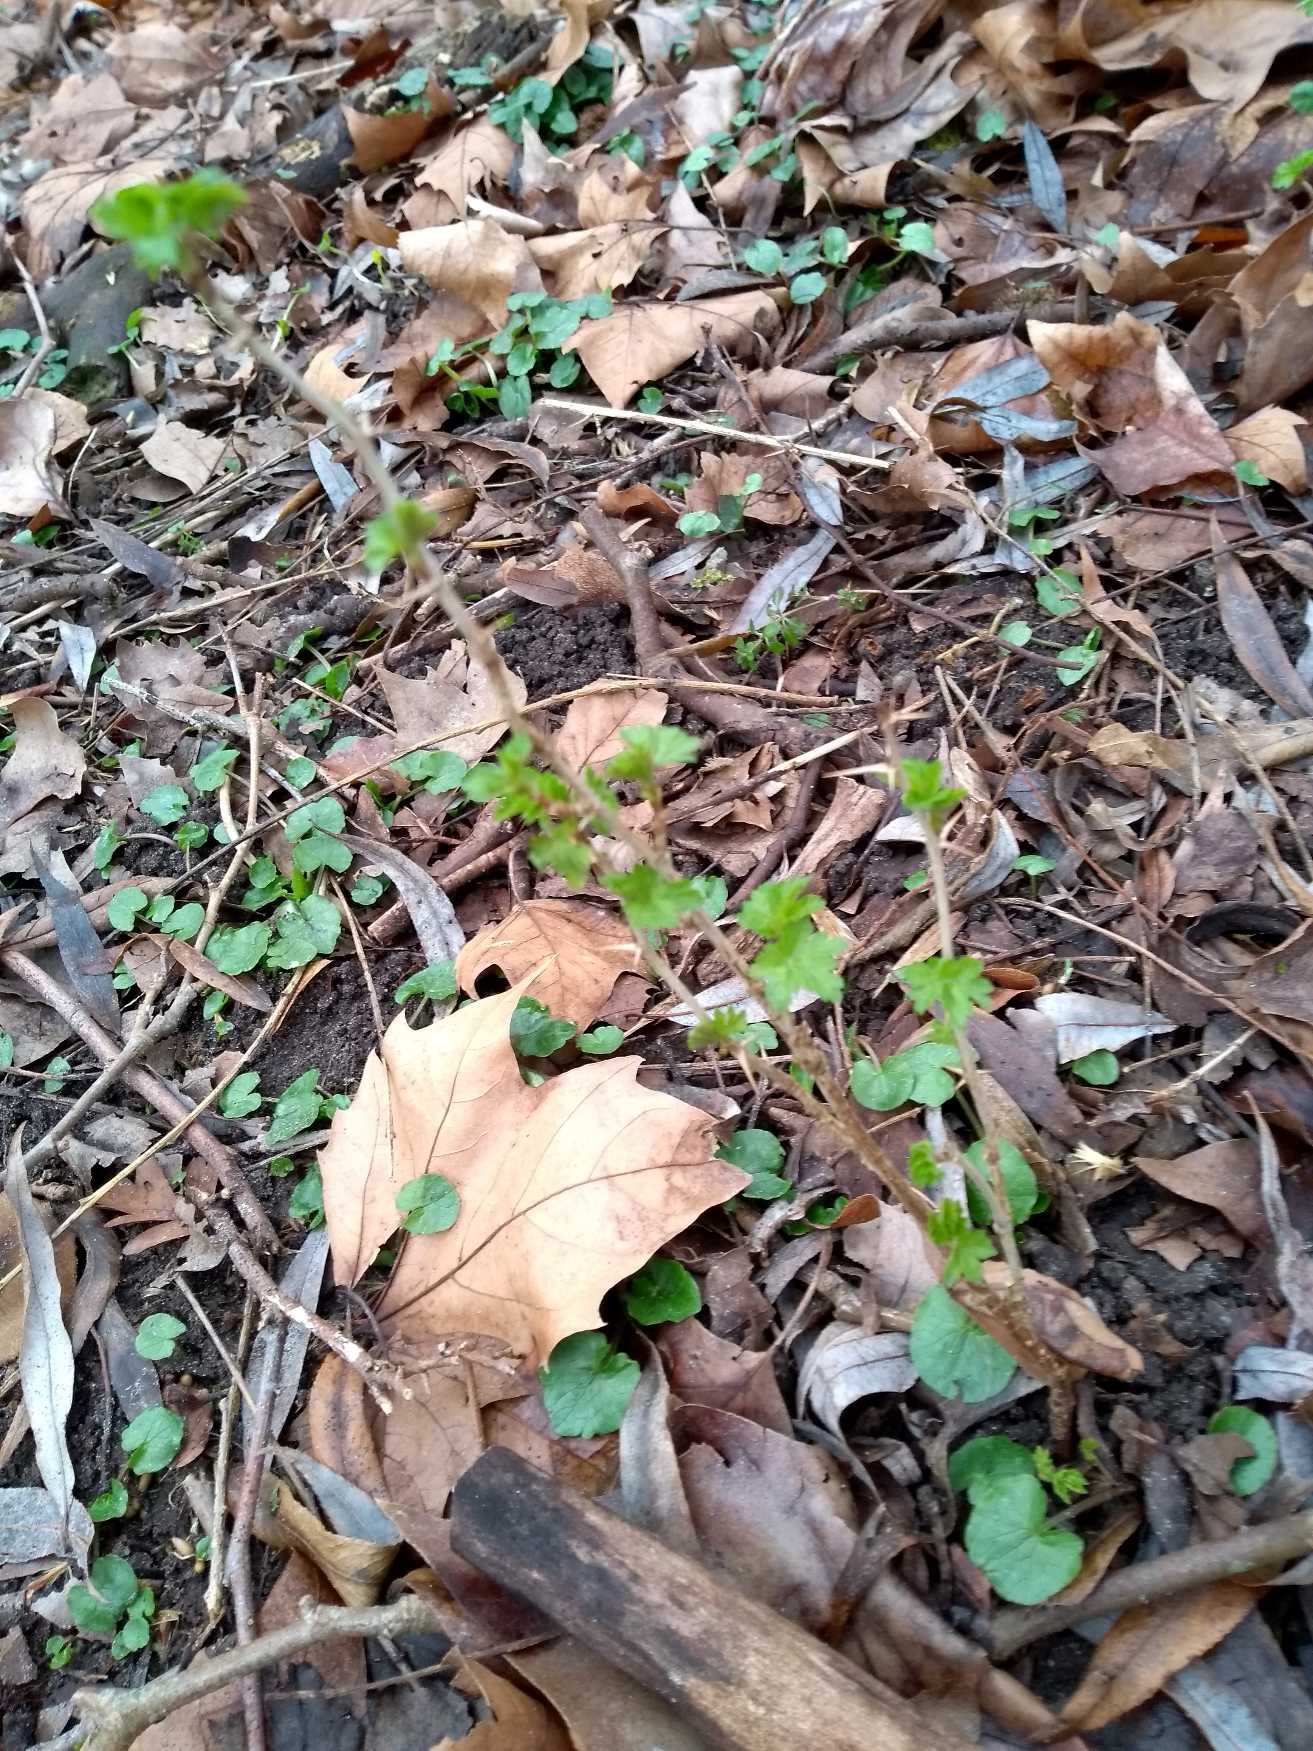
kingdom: Plantae
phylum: Tracheophyta
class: Magnoliopsida
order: Saxifragales
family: Grossulariaceae
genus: Ribes
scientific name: Ribes uva-crispa
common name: Stikkelsbær
